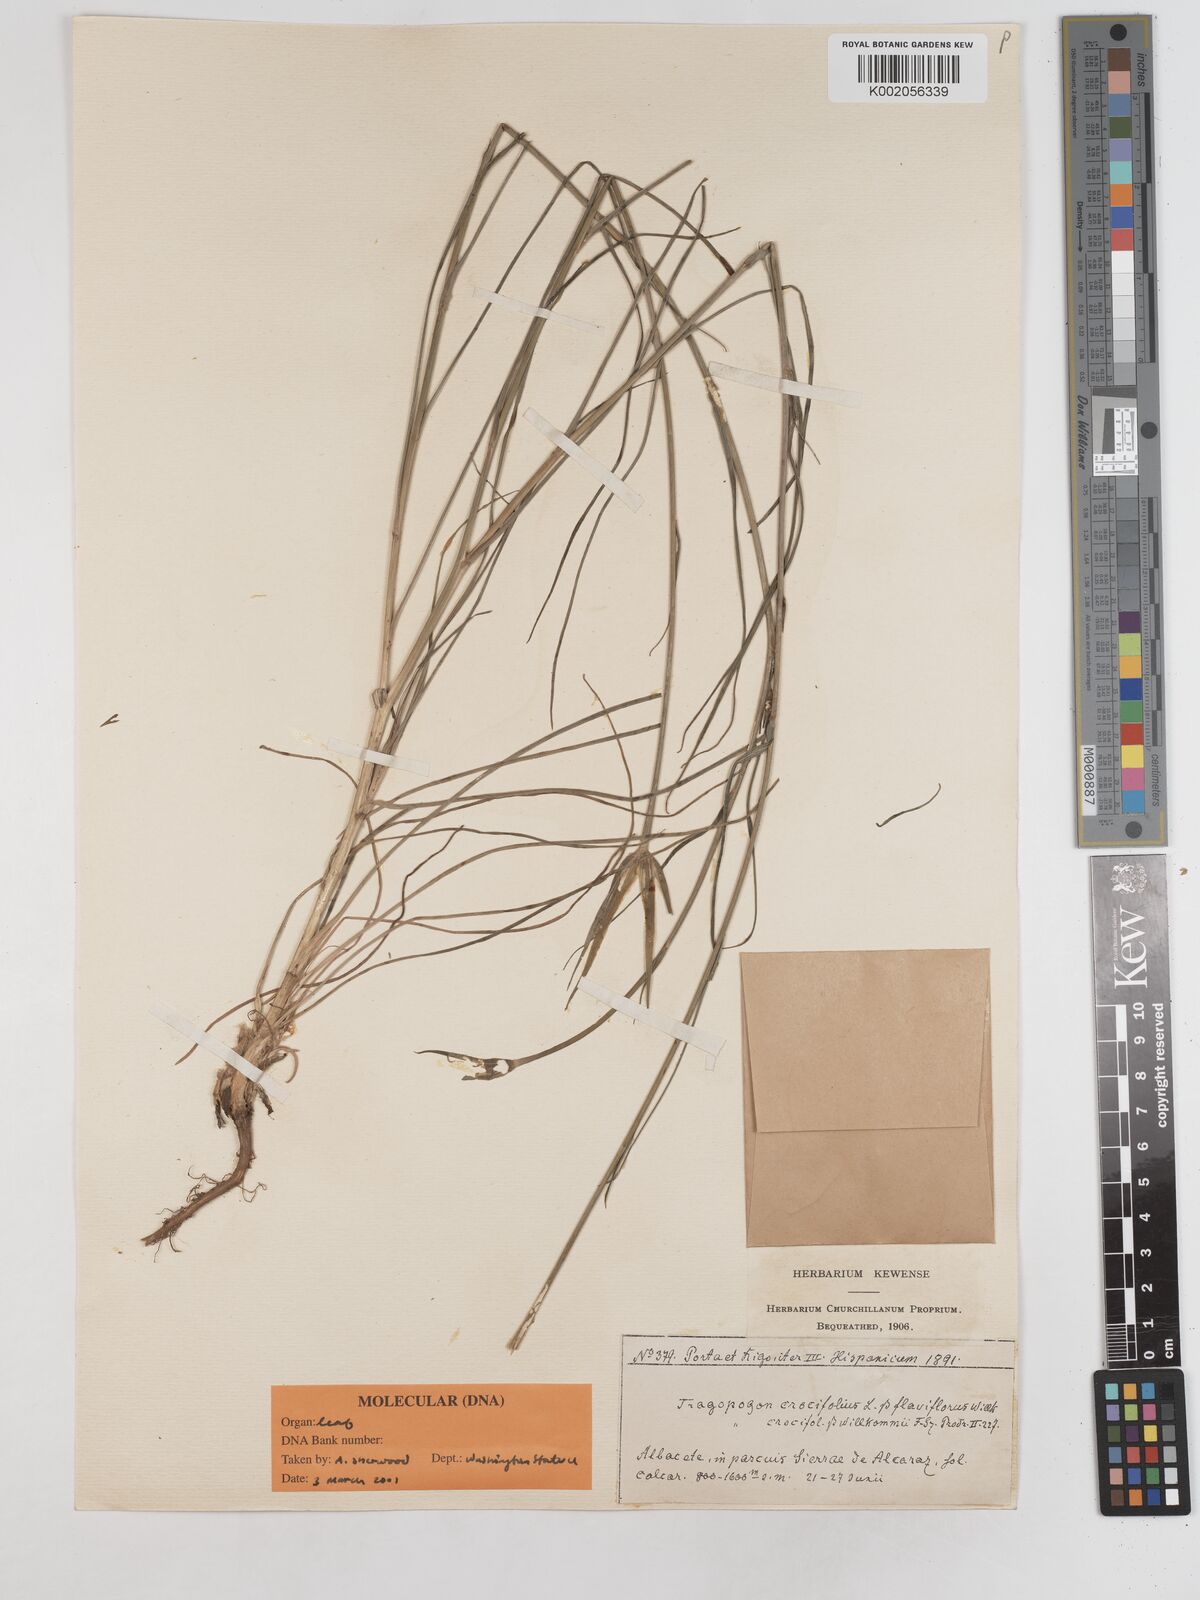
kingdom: Plantae
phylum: Tracheophyta
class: Magnoliopsida
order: Asterales
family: Asteraceae
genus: Tragopogon
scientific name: Tragopogon crocifolius
